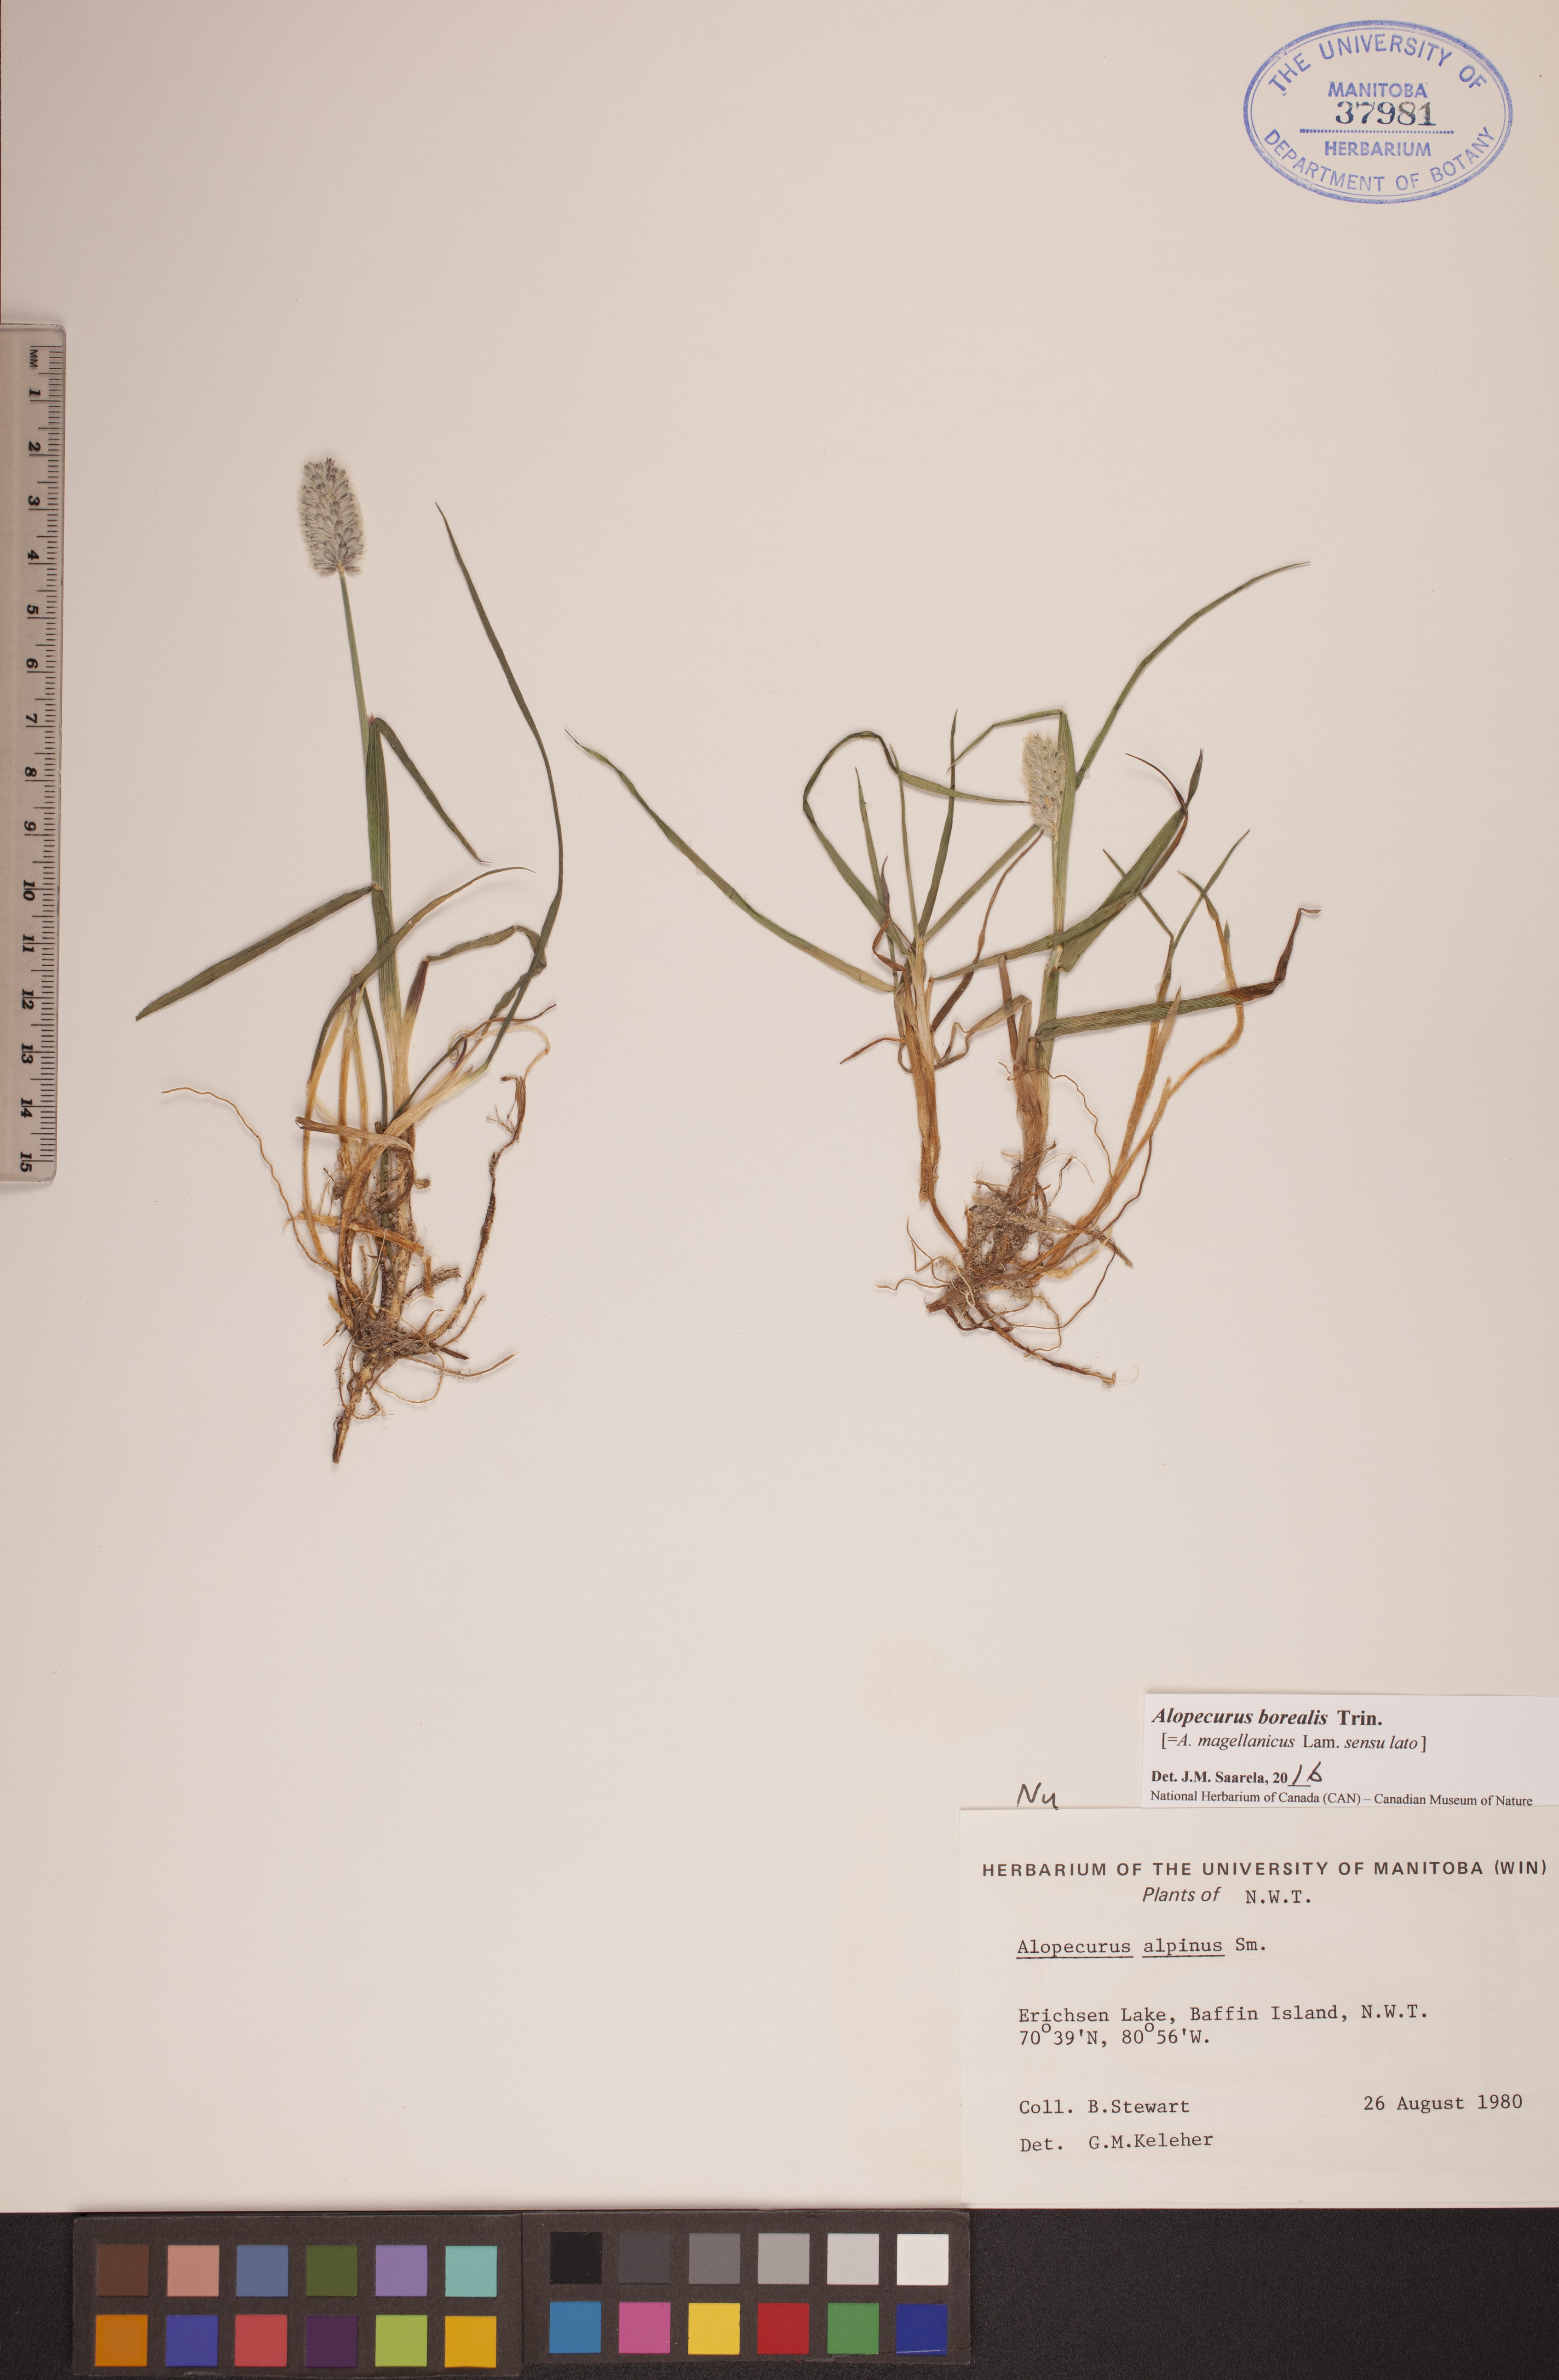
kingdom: Plantae
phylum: Tracheophyta
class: Liliopsida
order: Poales
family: Poaceae
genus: Alopecurus
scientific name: Alopecurus magellanicus
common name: Alpine foxtail
